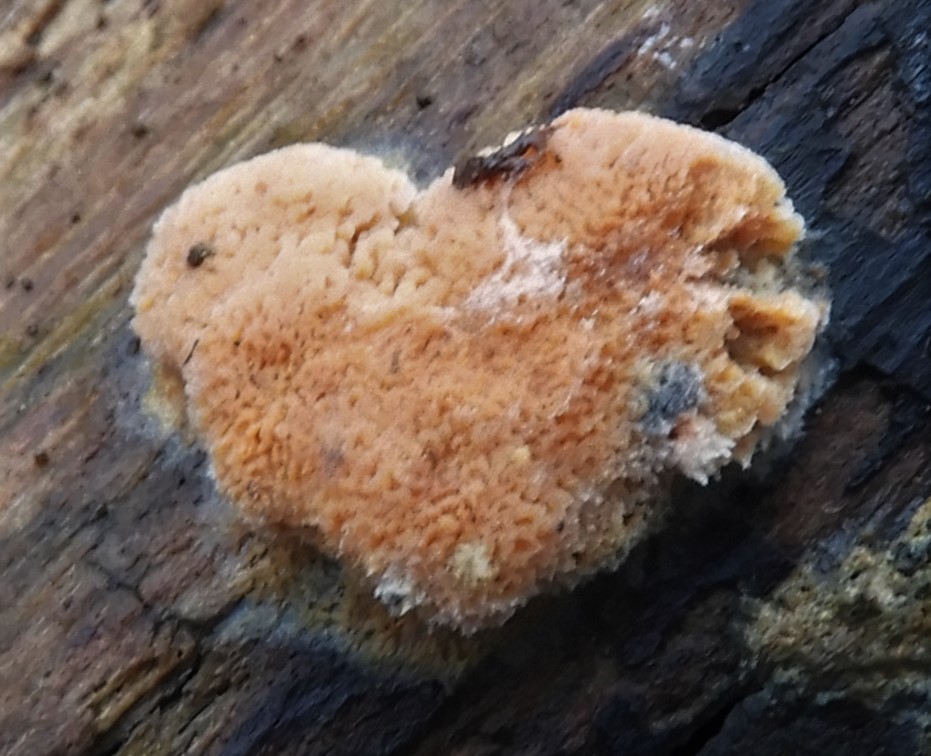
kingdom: Fungi
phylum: Basidiomycota
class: Agaricomycetes
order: Polyporales
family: Irpicaceae
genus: Ceriporia
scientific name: Ceriporia
